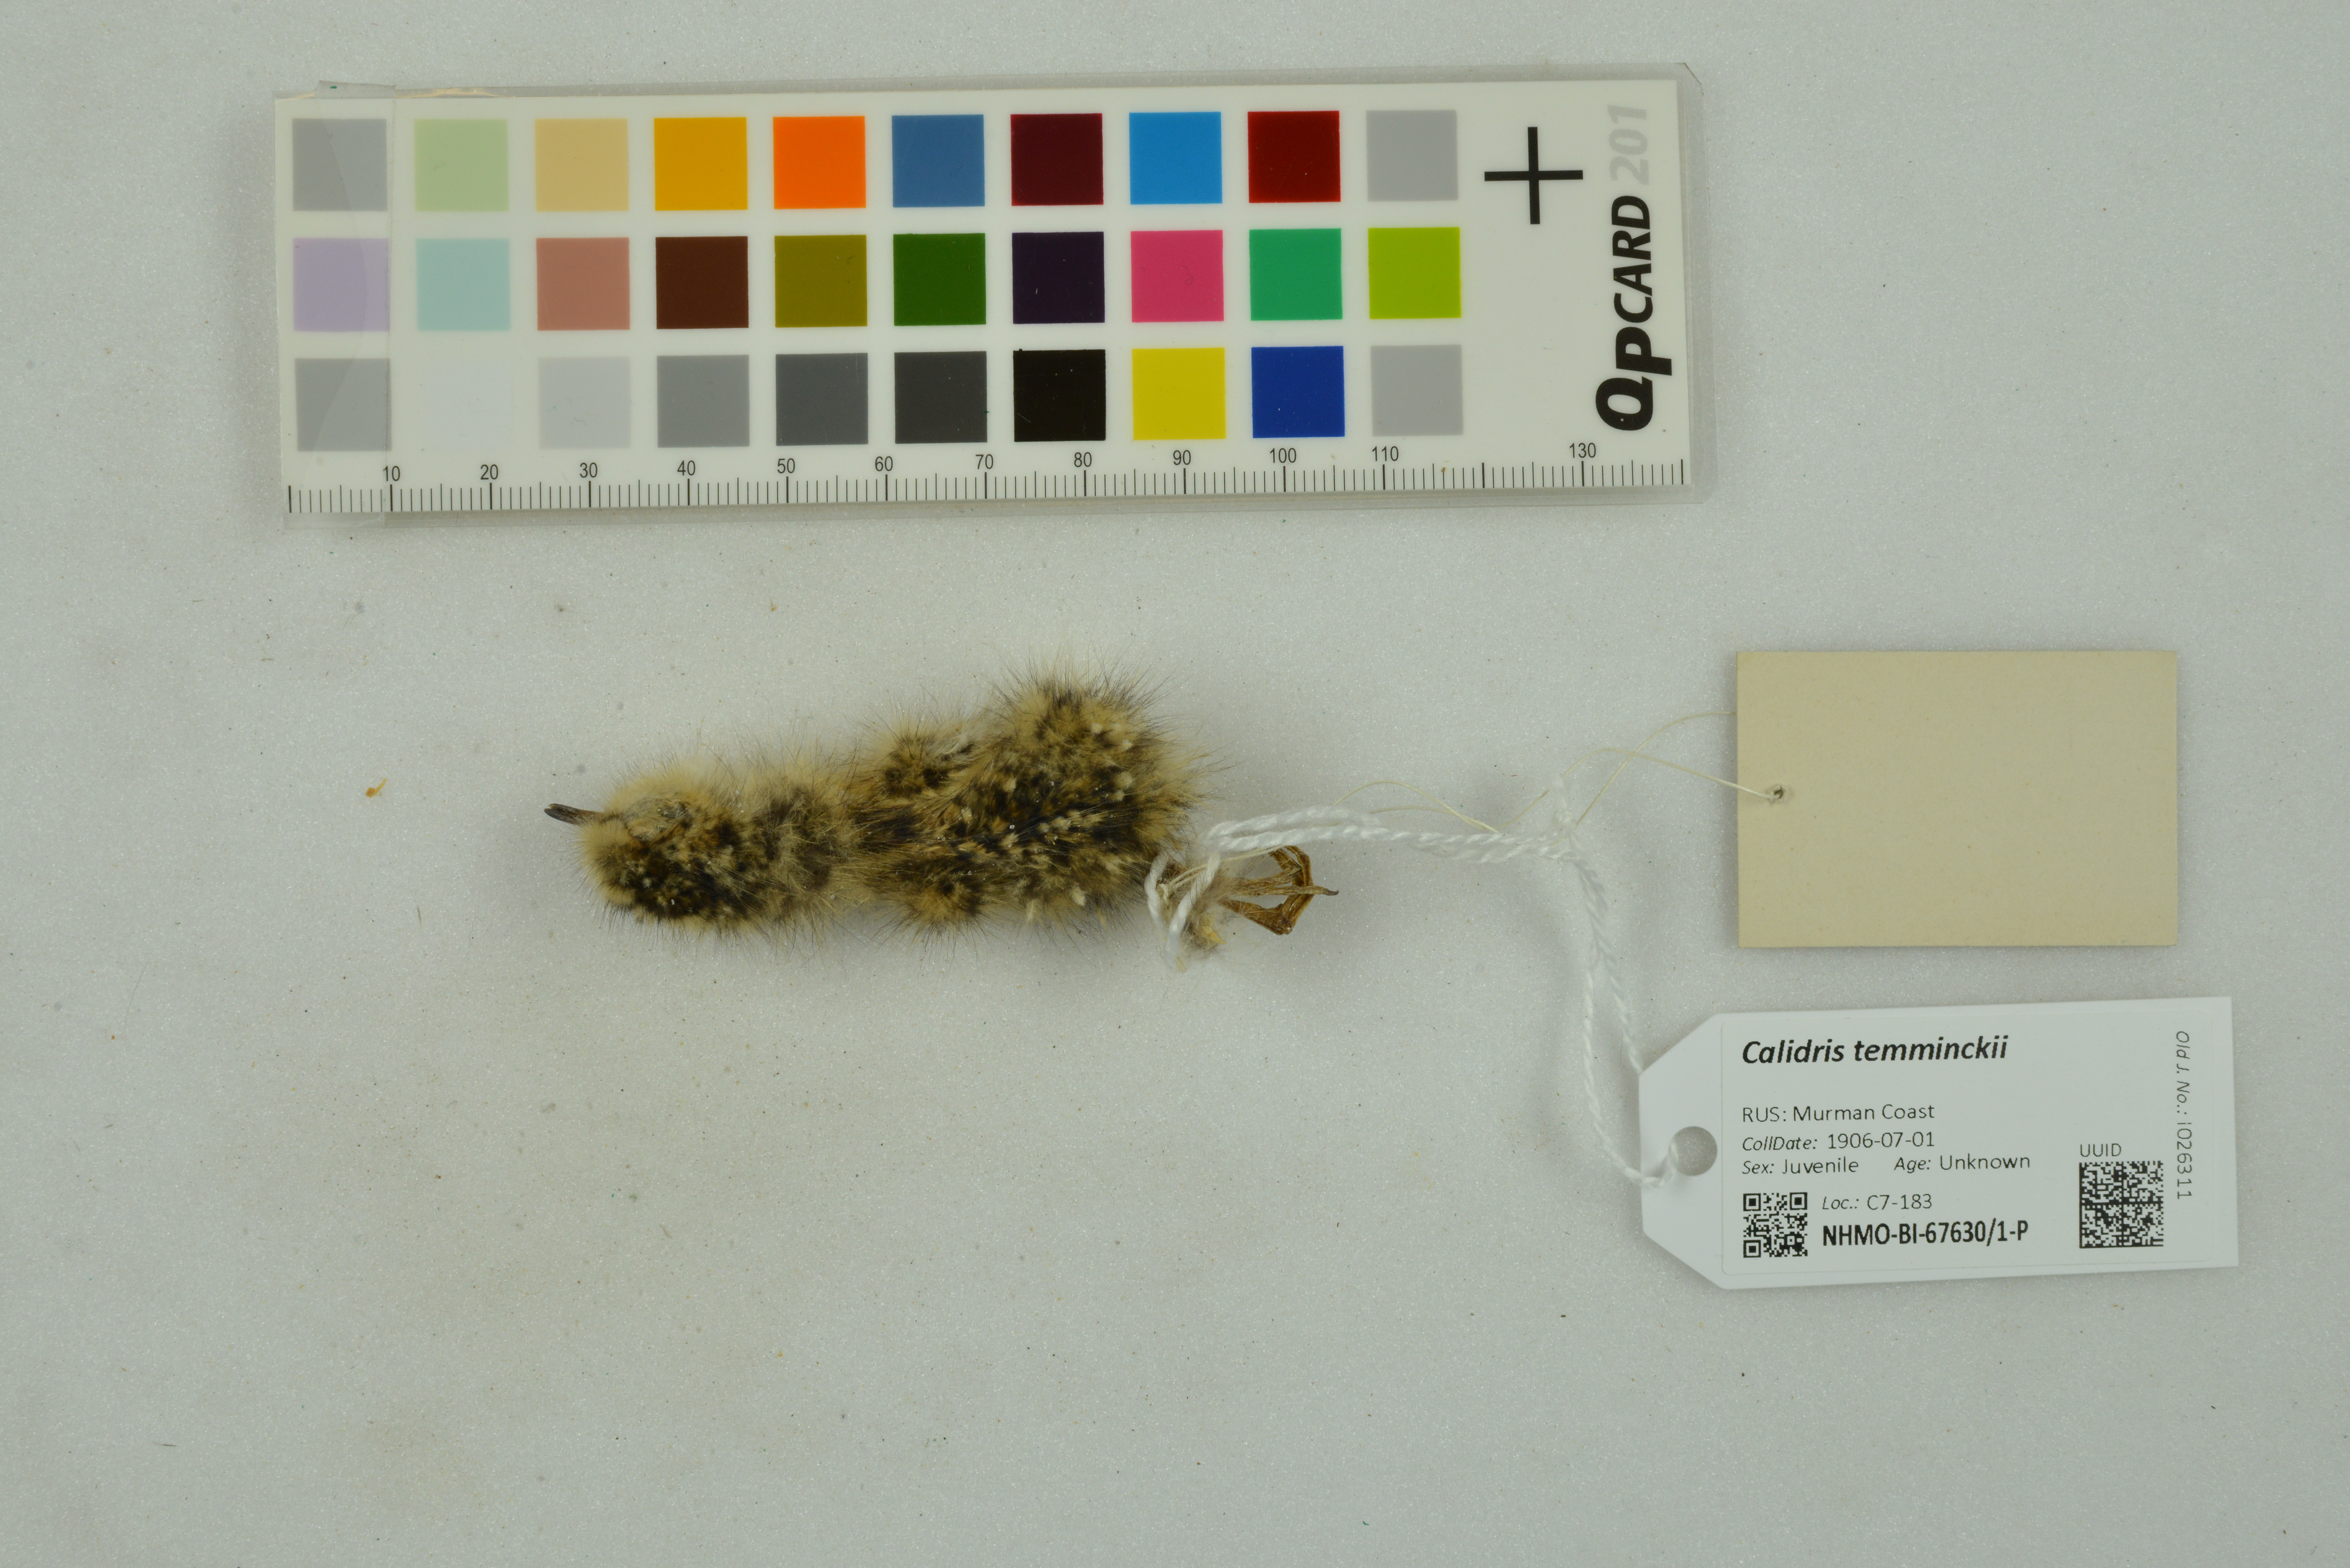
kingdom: Animalia
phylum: Chordata
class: Aves
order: Charadriiformes
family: Scolopacidae
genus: Calidris
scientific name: Calidris temminckii
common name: Temminck's stint
